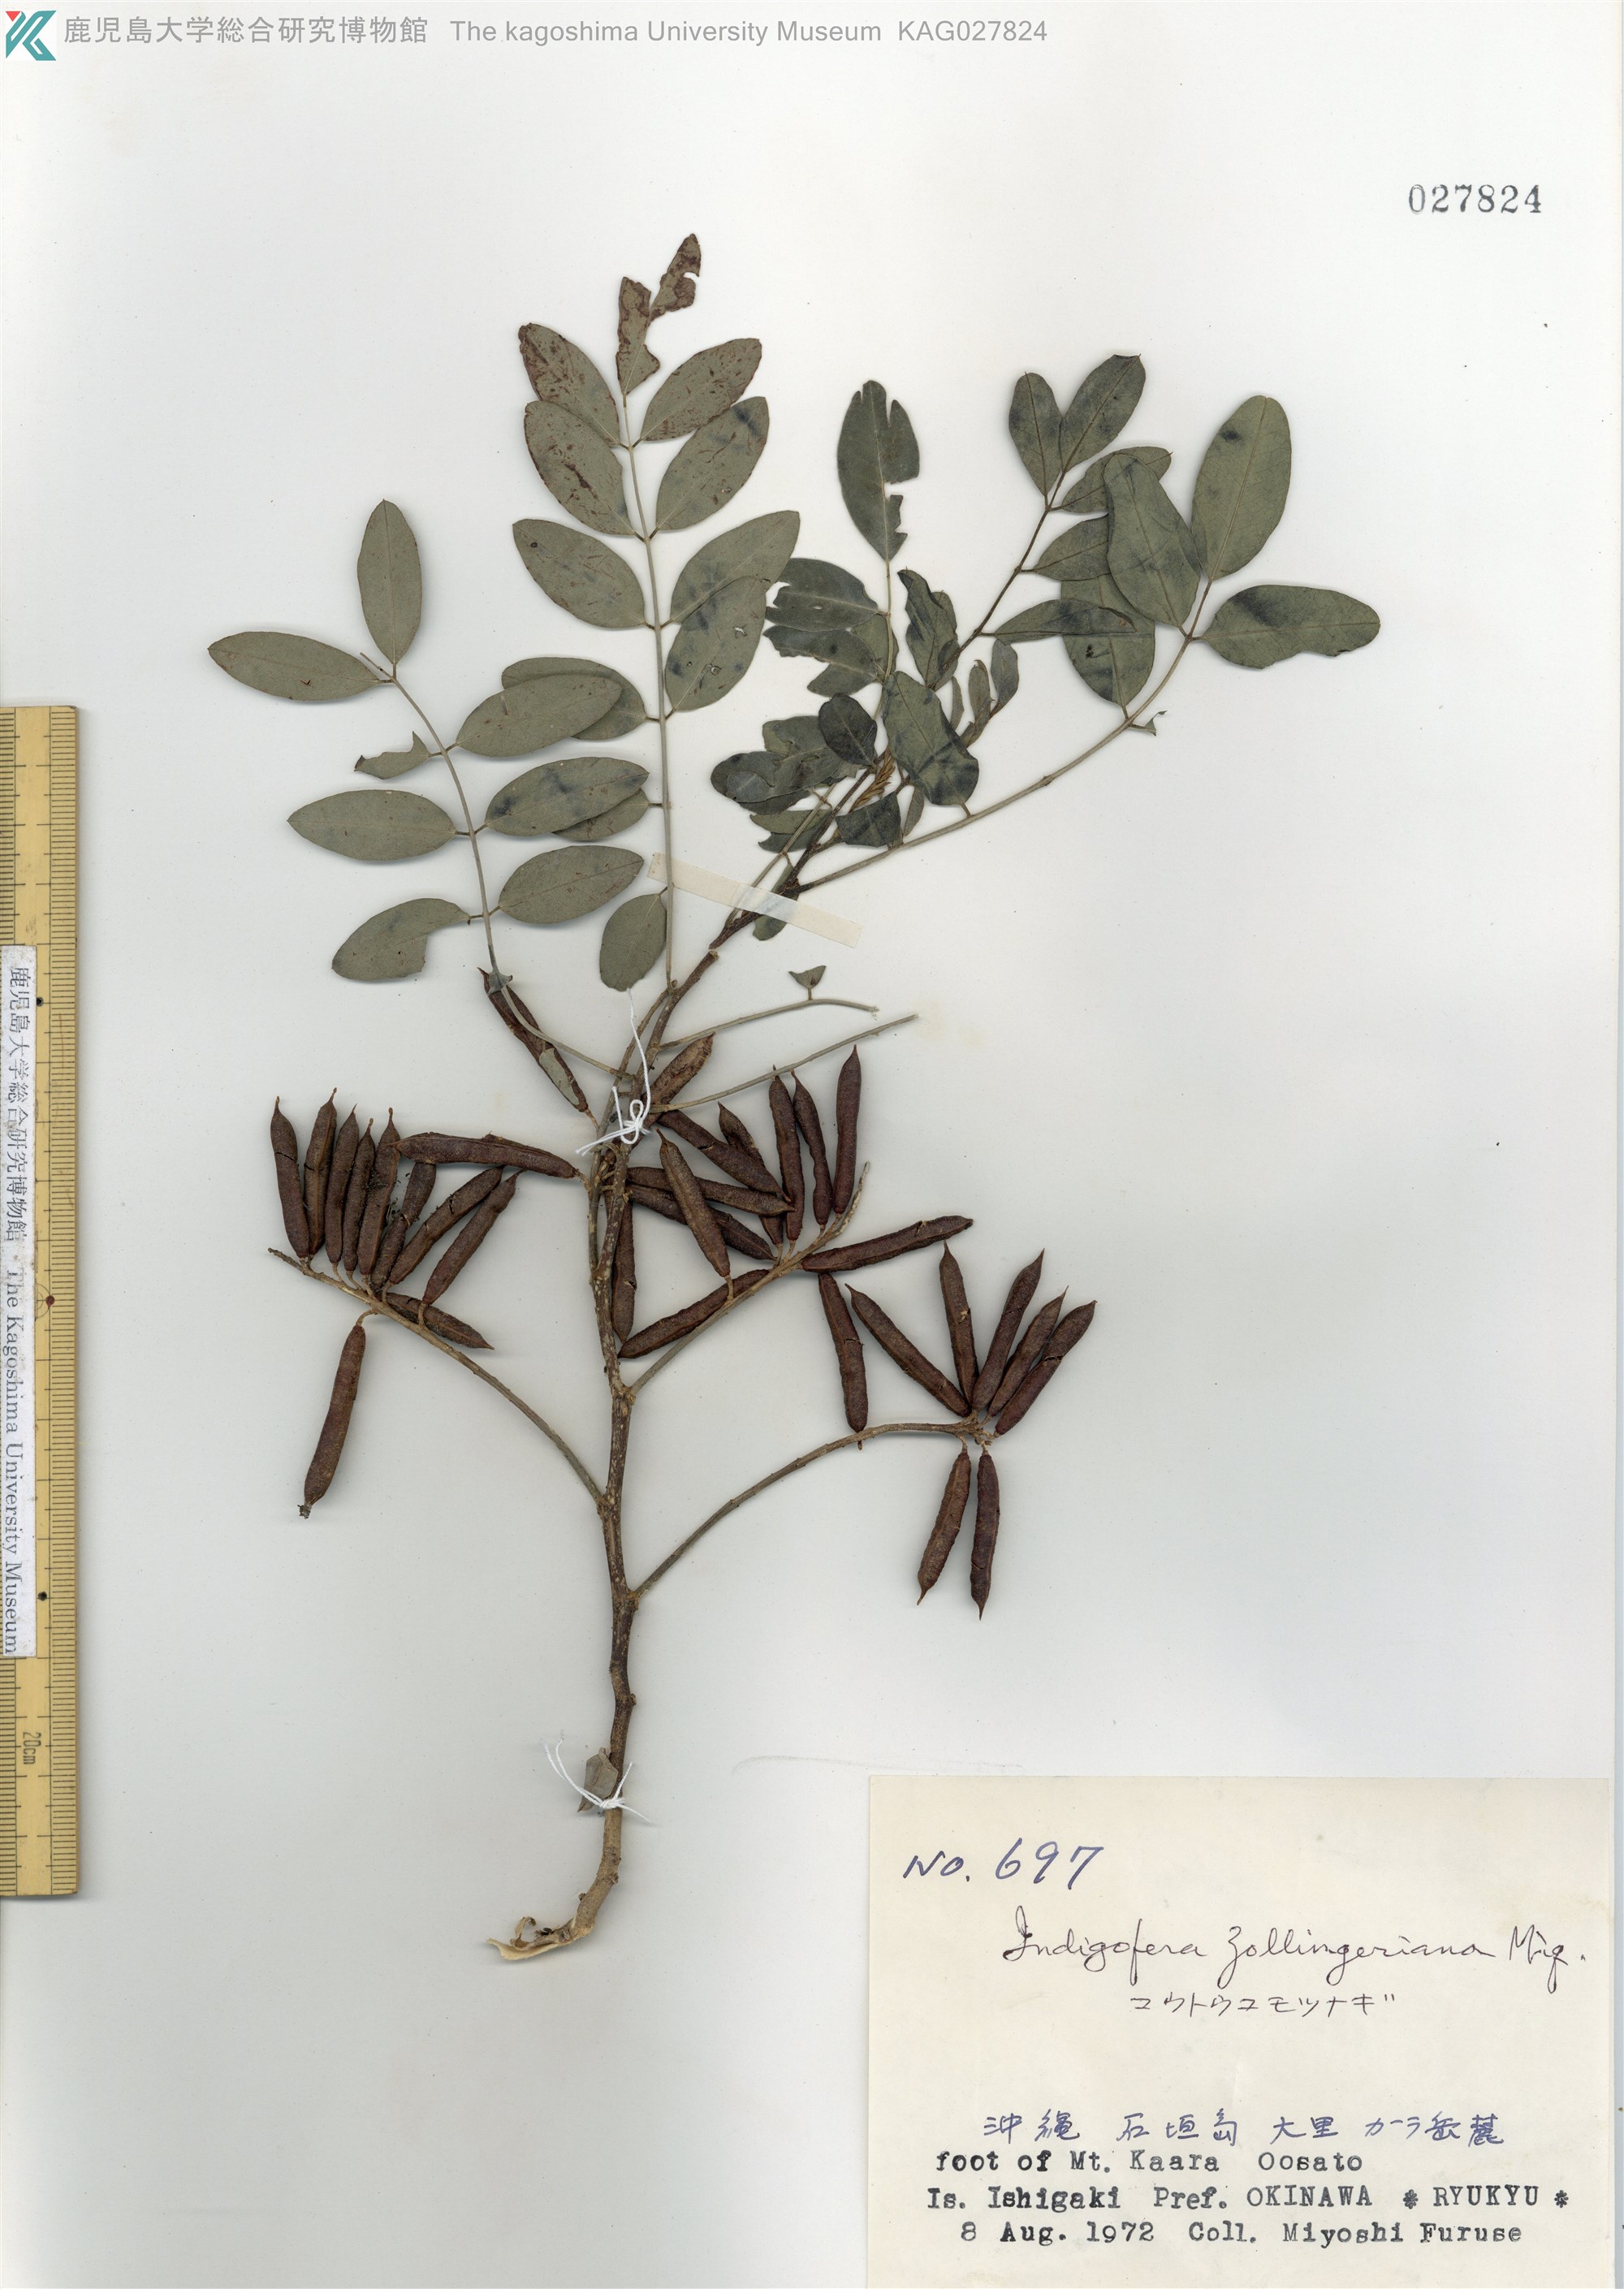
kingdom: Plantae
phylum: Tracheophyta
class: Magnoliopsida
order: Fabales
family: Fabaceae
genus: Indigofera
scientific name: Indigofera zollingeriana
